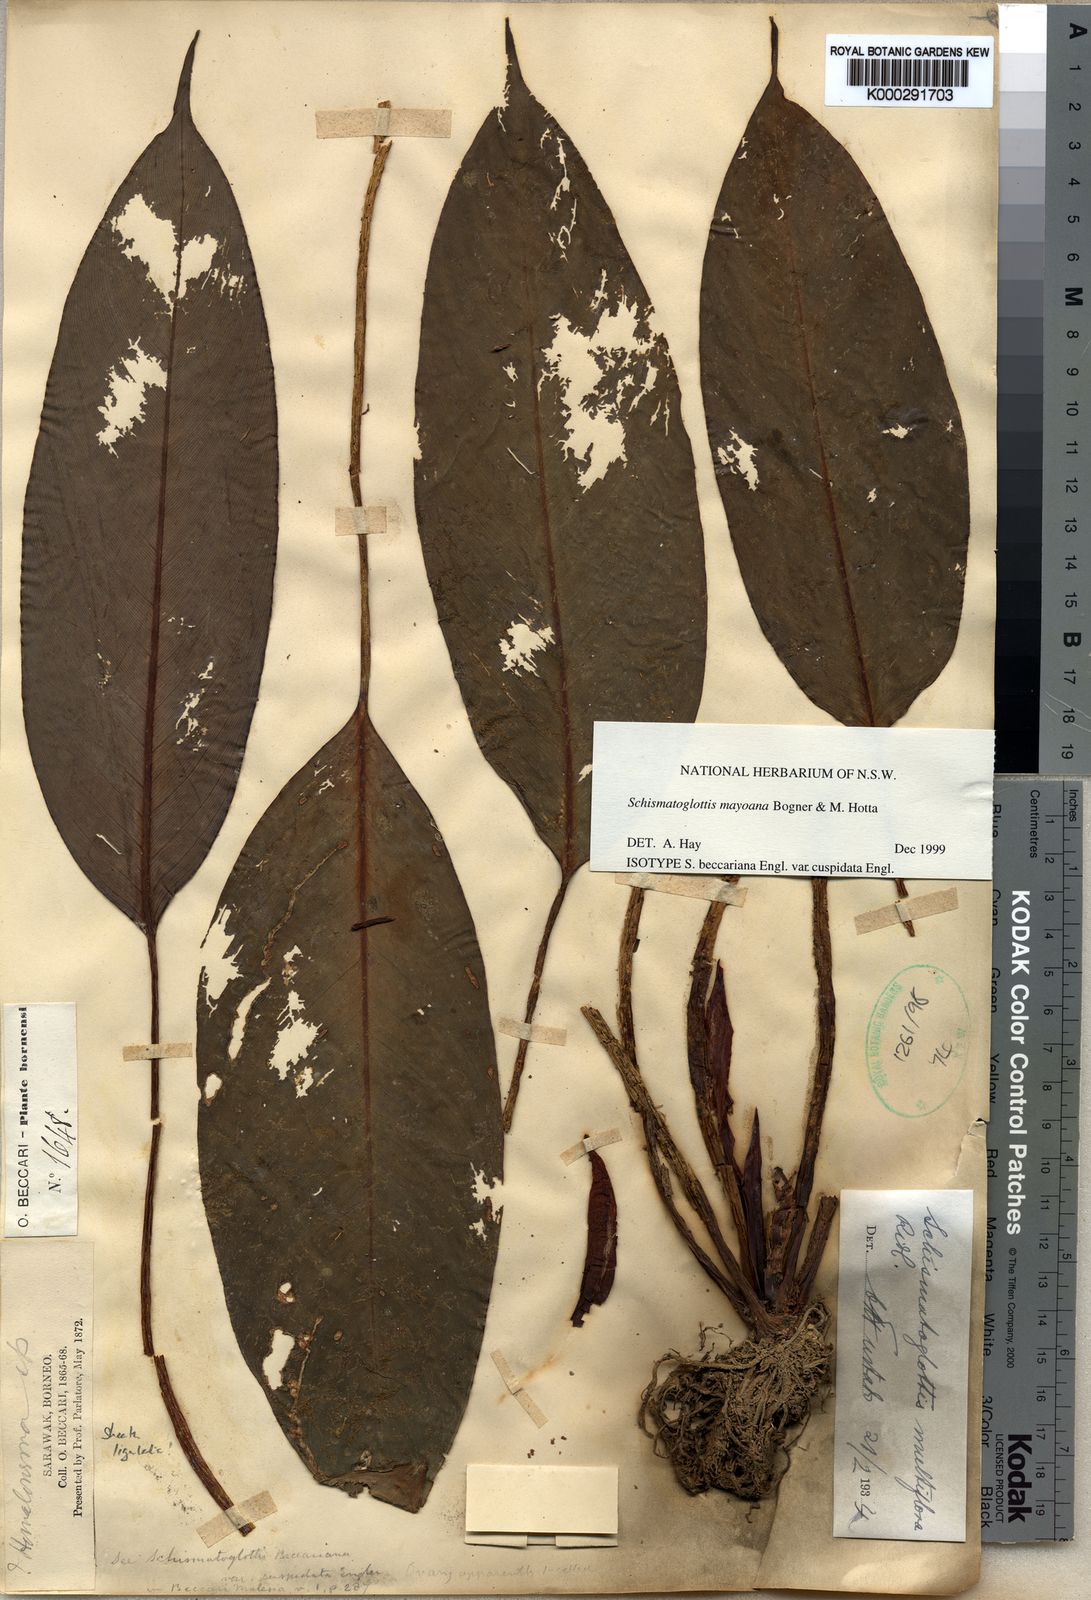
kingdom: Plantae
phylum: Tracheophyta
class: Liliopsida
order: Alismatales
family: Araceae
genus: Schismatoglottis
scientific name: Schismatoglottis mayoana
